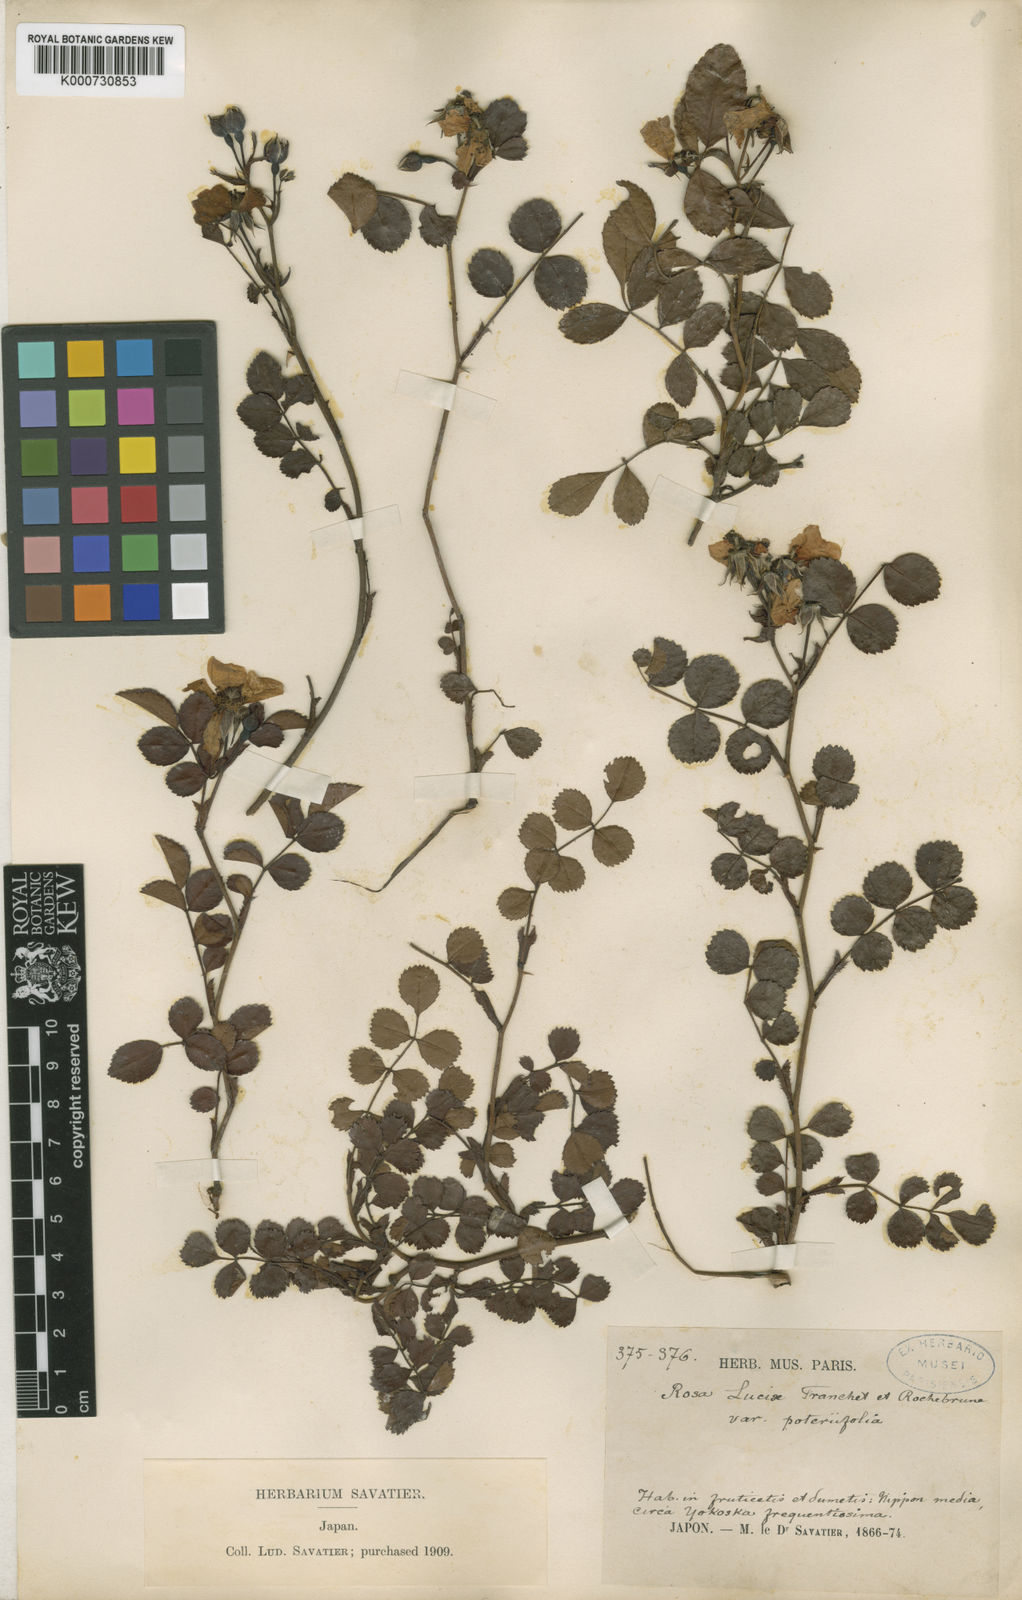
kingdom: Plantae
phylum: Tracheophyta
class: Magnoliopsida
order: Rosales
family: Rosaceae
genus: Rosa
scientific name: Rosa
